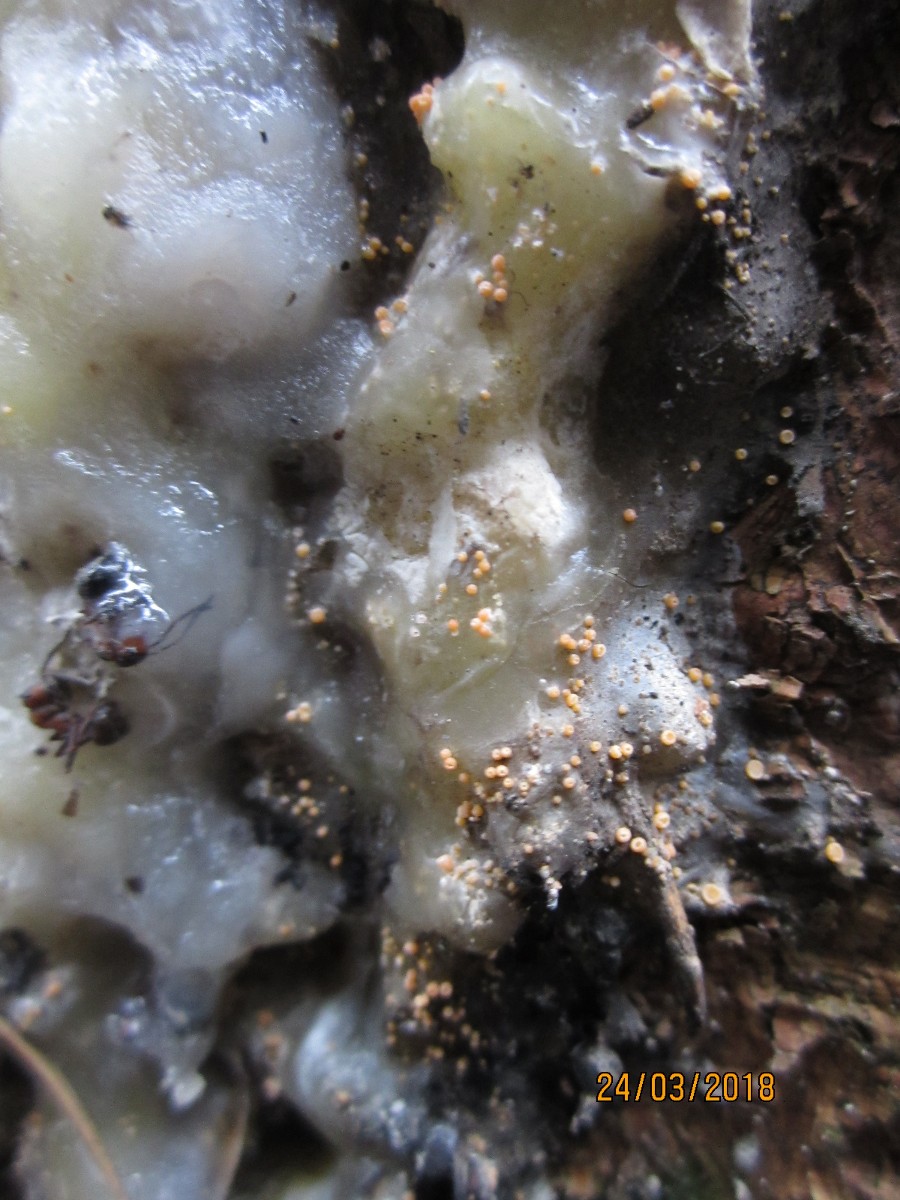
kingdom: Fungi
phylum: Ascomycota
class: Sareomycetes
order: Sareales
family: Sareaceae
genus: Sarea
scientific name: Sarea resinae
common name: orangegul harpiksskive
